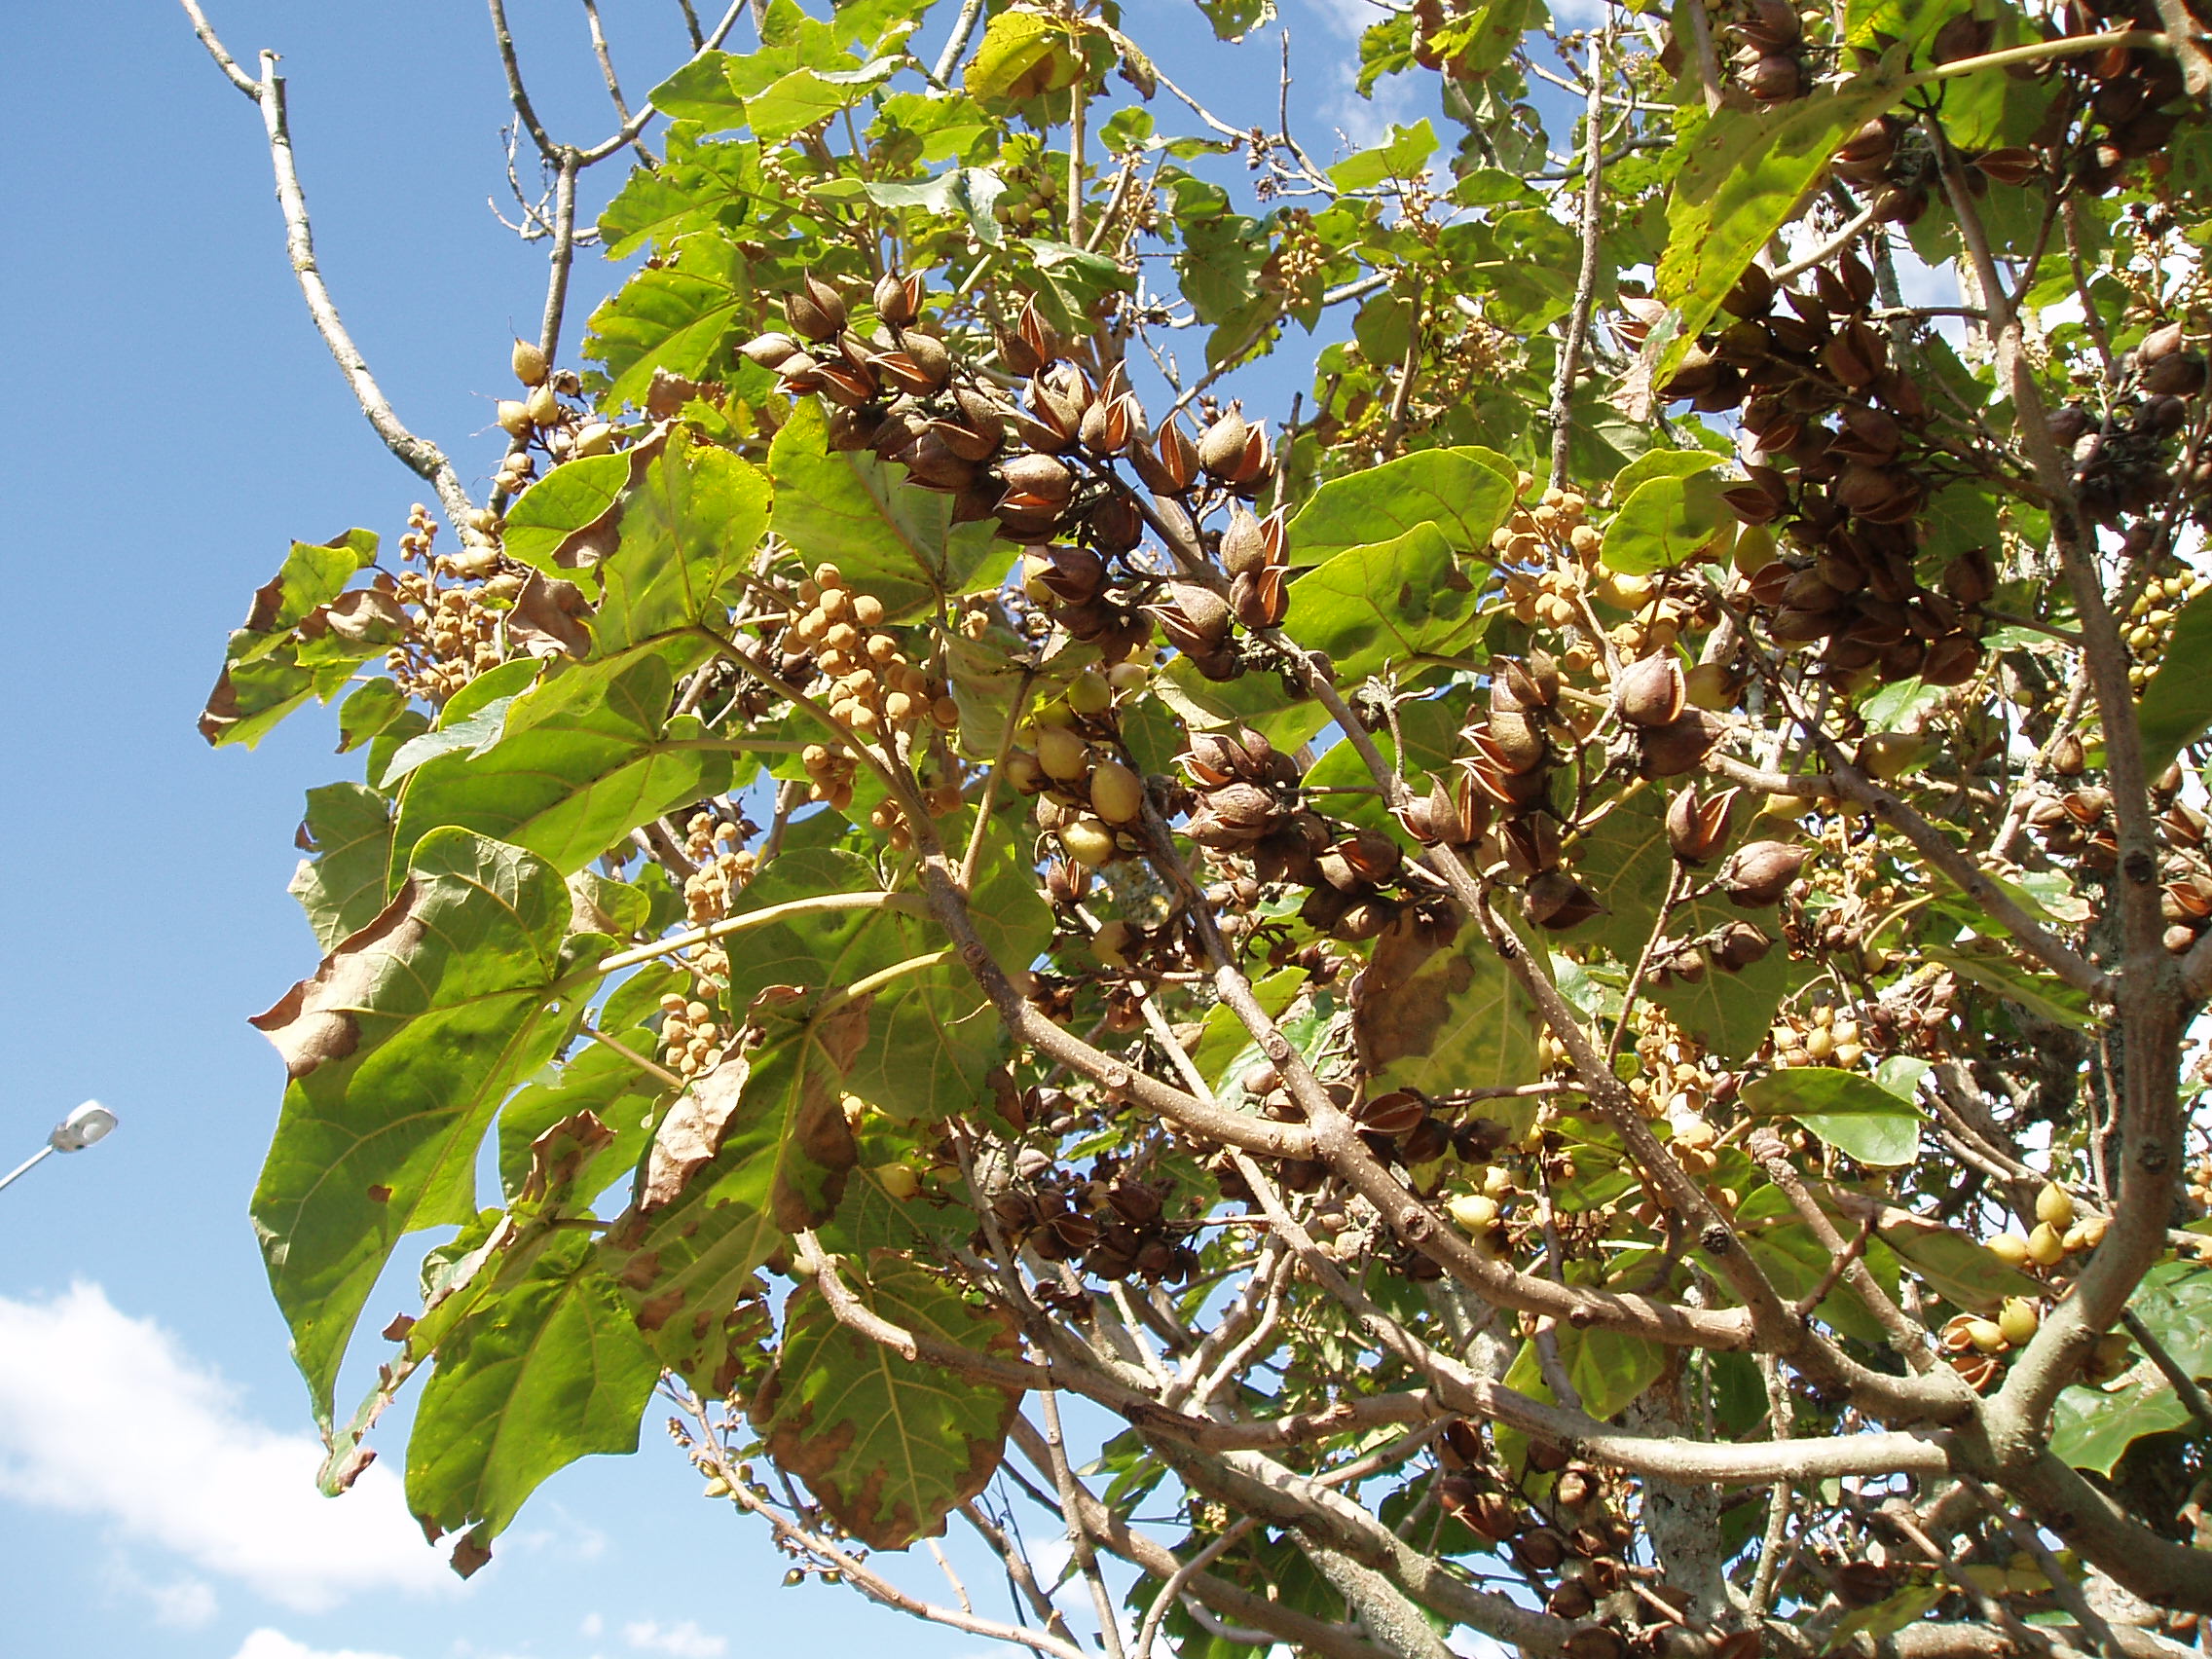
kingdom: Plantae
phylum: Tracheophyta
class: Magnoliopsida
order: Lamiales
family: Paulowniaceae
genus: Paulownia
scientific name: Paulownia elongata
